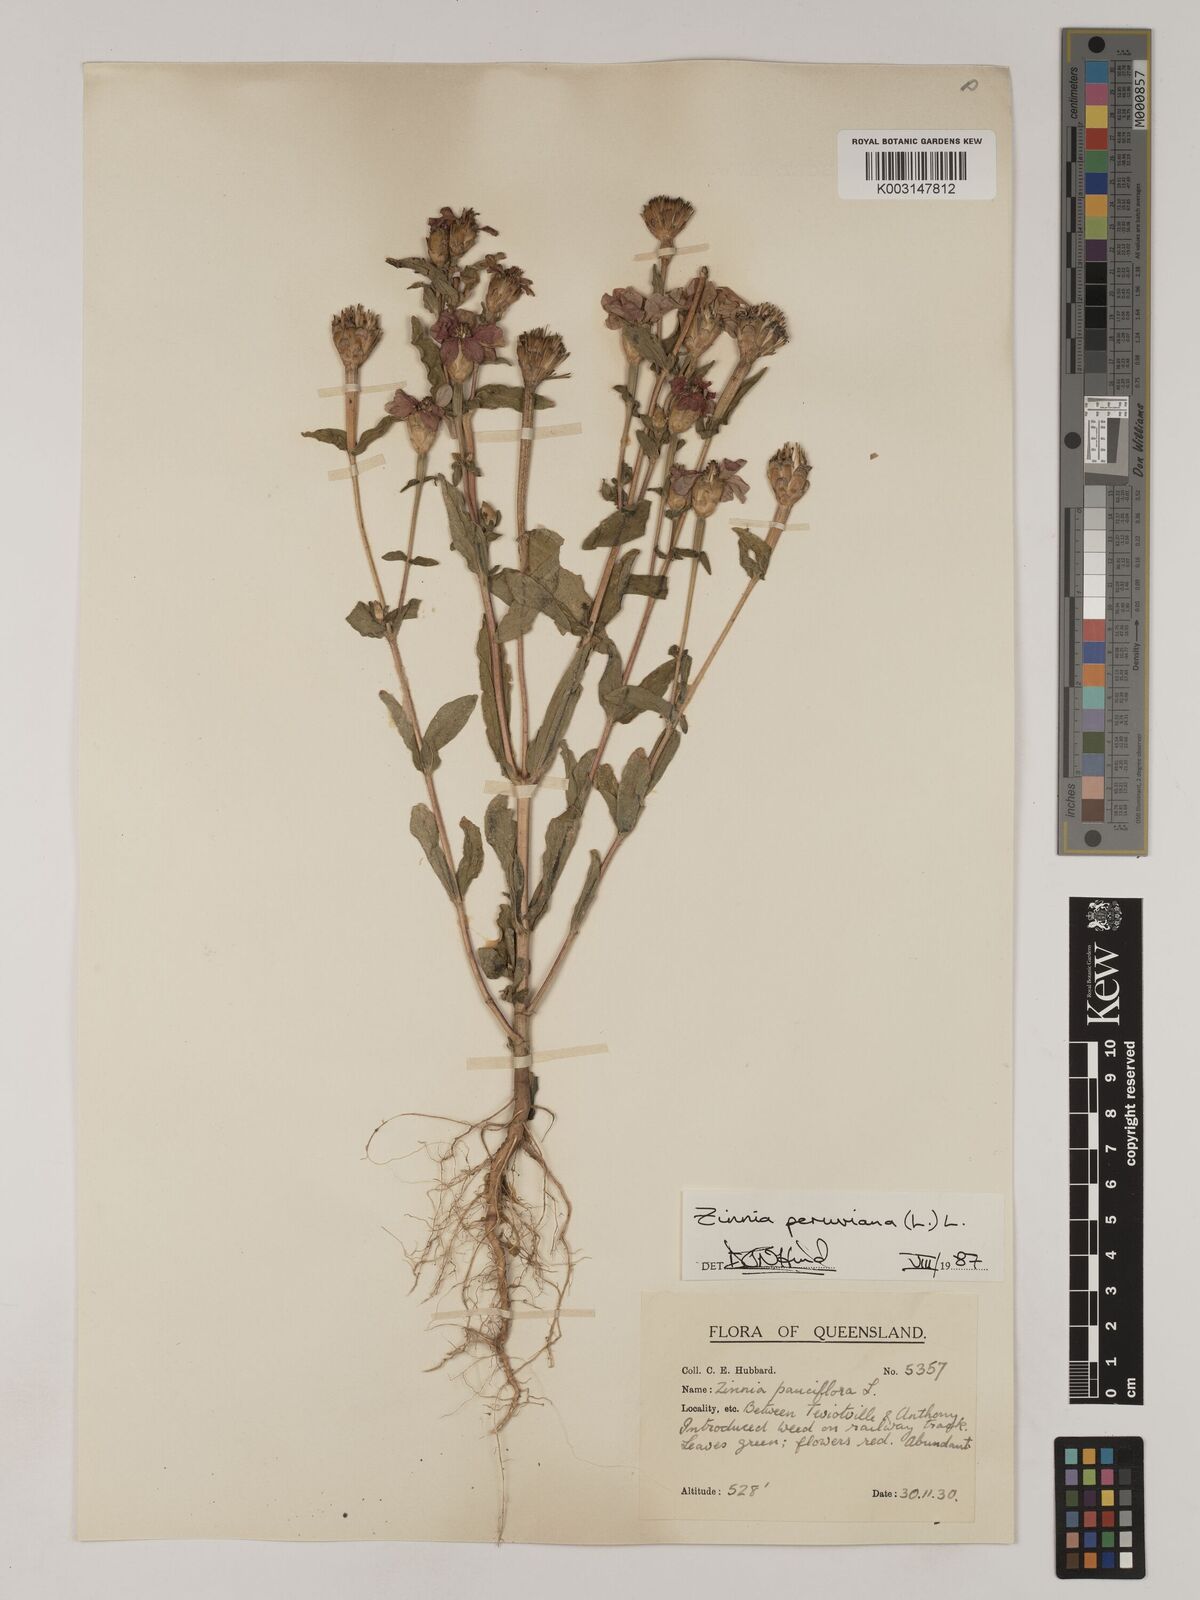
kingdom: Plantae
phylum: Tracheophyta
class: Magnoliopsida
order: Asterales
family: Asteraceae
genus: Zinnia
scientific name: Zinnia peruviana
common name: Peruvian zinnia
